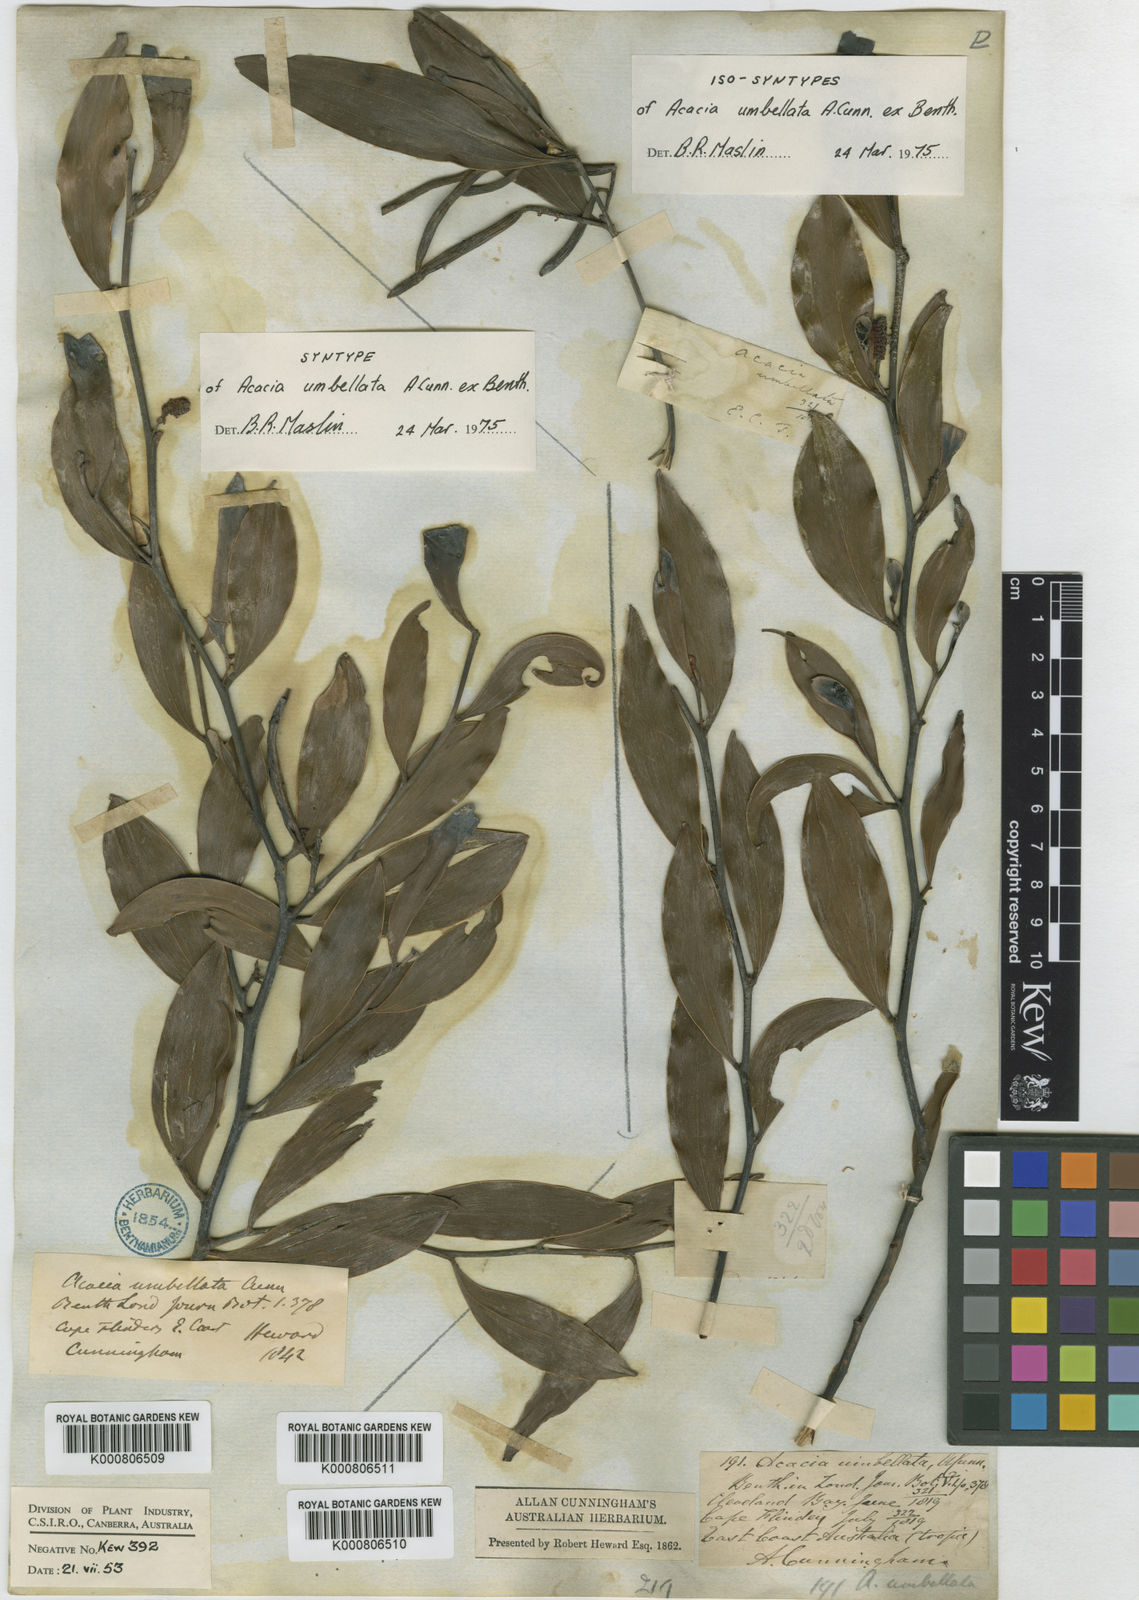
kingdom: Plantae
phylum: Tracheophyta
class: Magnoliopsida
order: Fabales
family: Fabaceae
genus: Acacia
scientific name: Acacia umbellata
